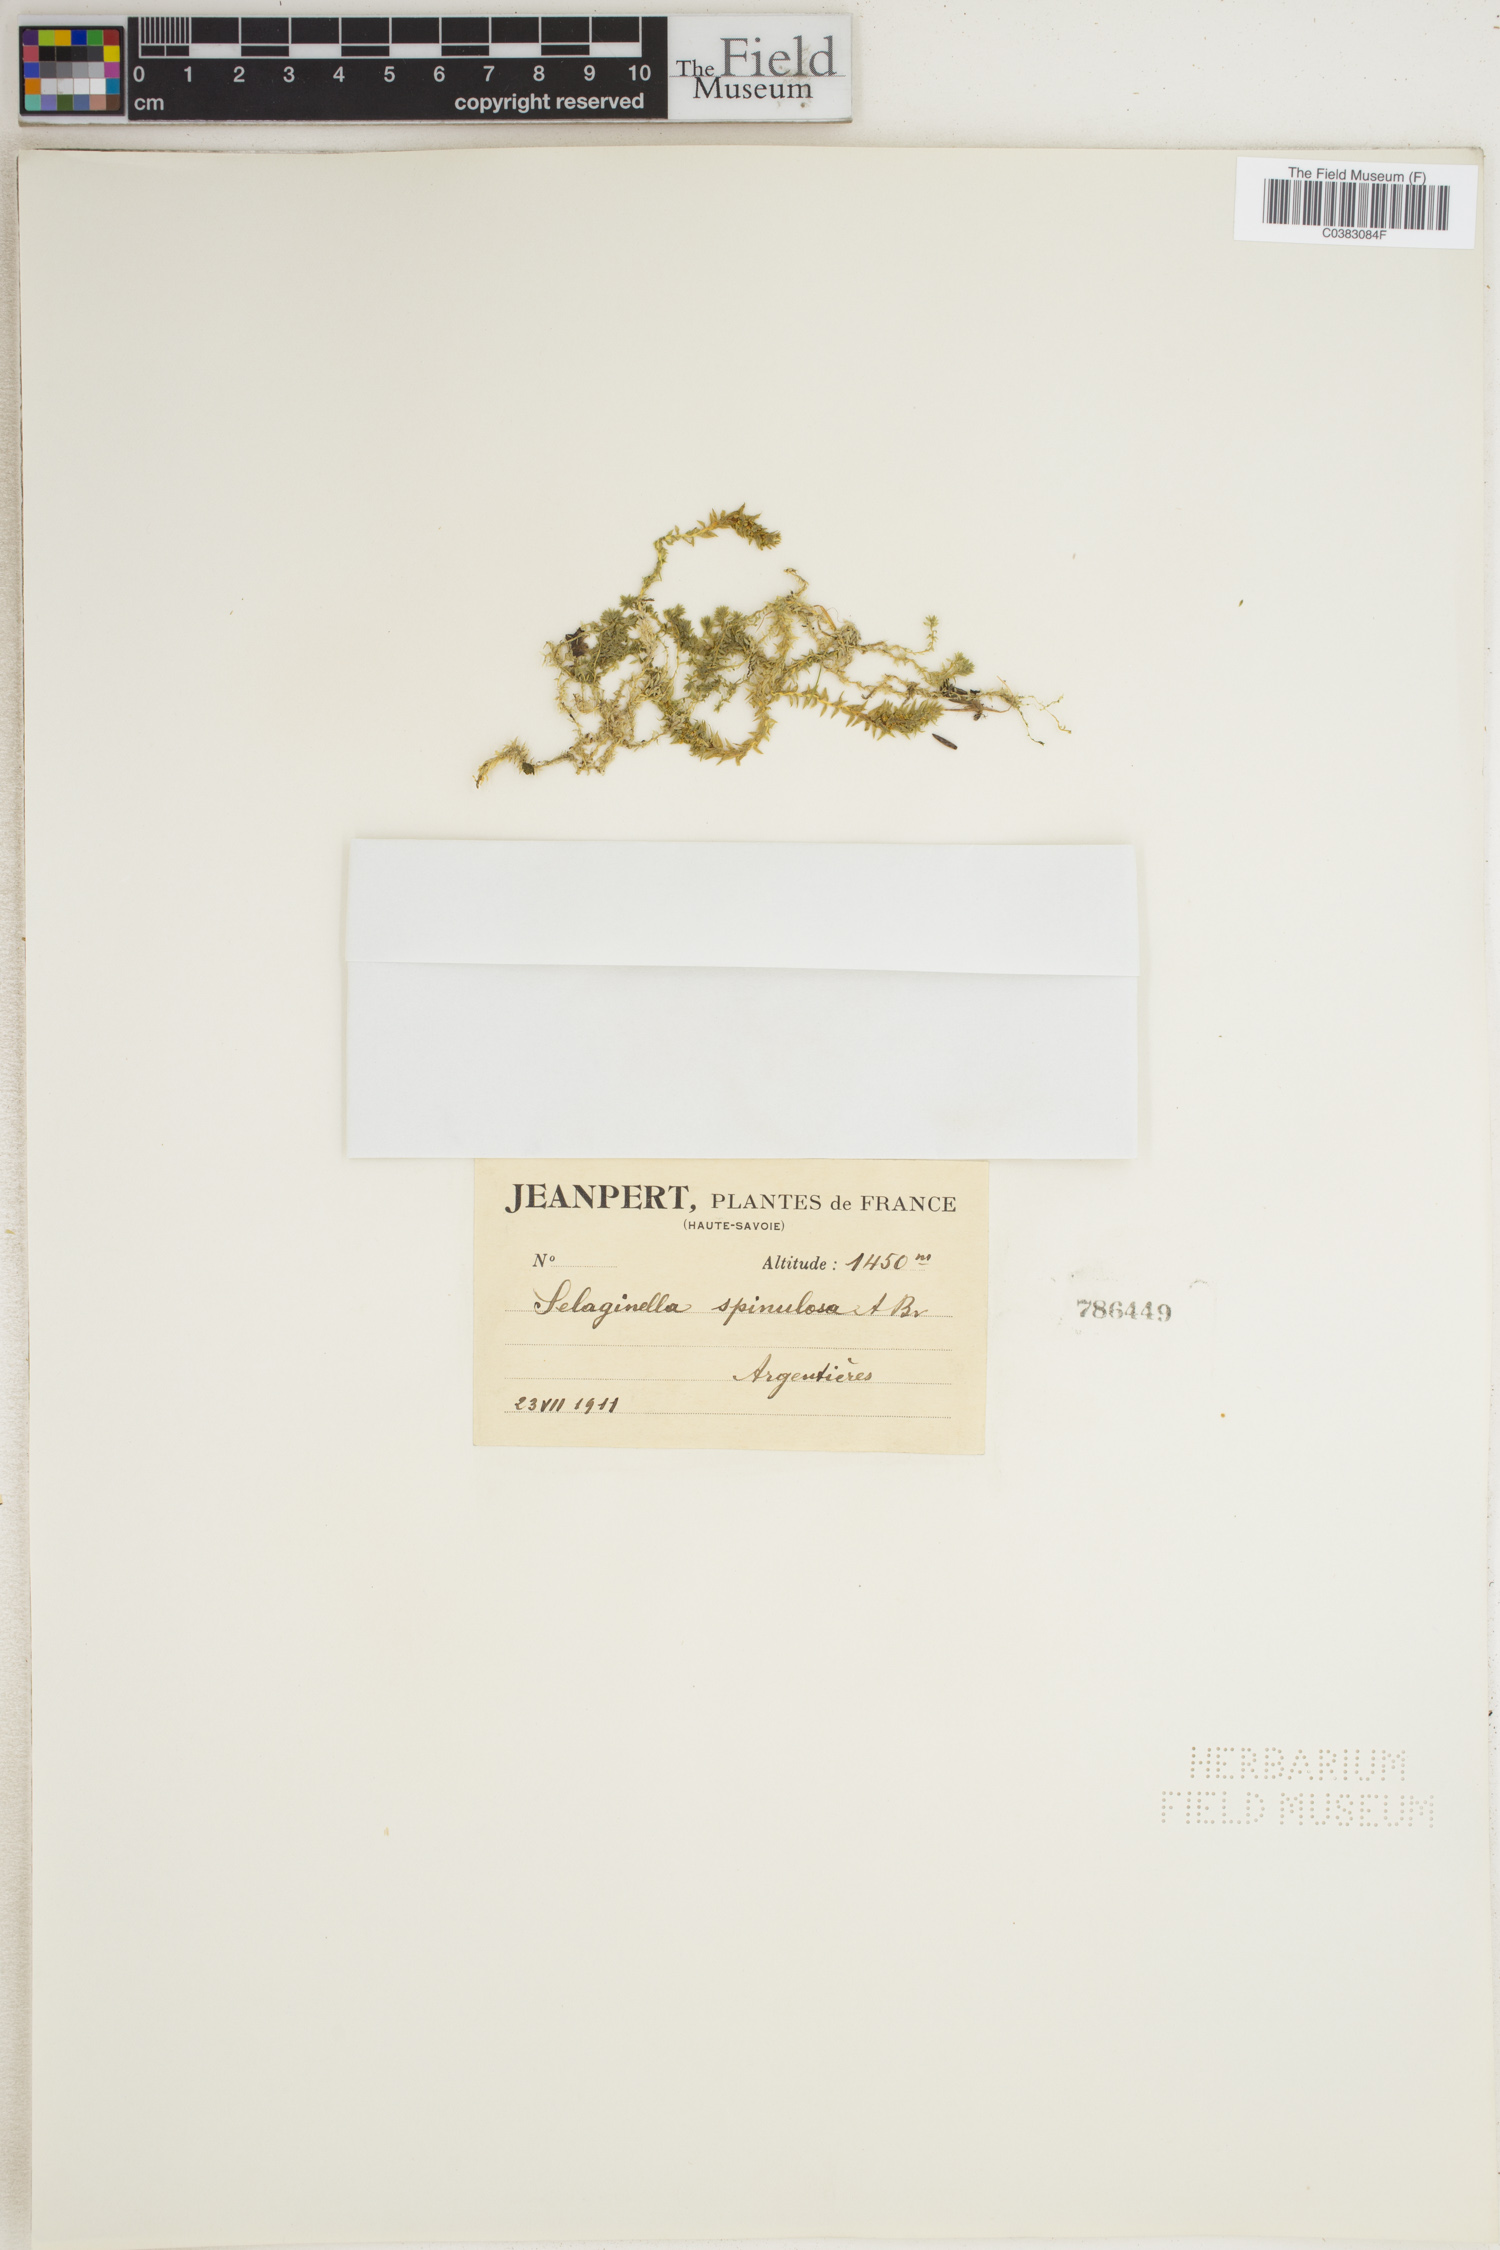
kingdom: Plantae
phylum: Tracheophyta
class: Lycopodiopsida
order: Selaginellales
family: Selaginellaceae
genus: Selaginella
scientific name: Selaginella selaginoides
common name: Prickly mountain-moss
